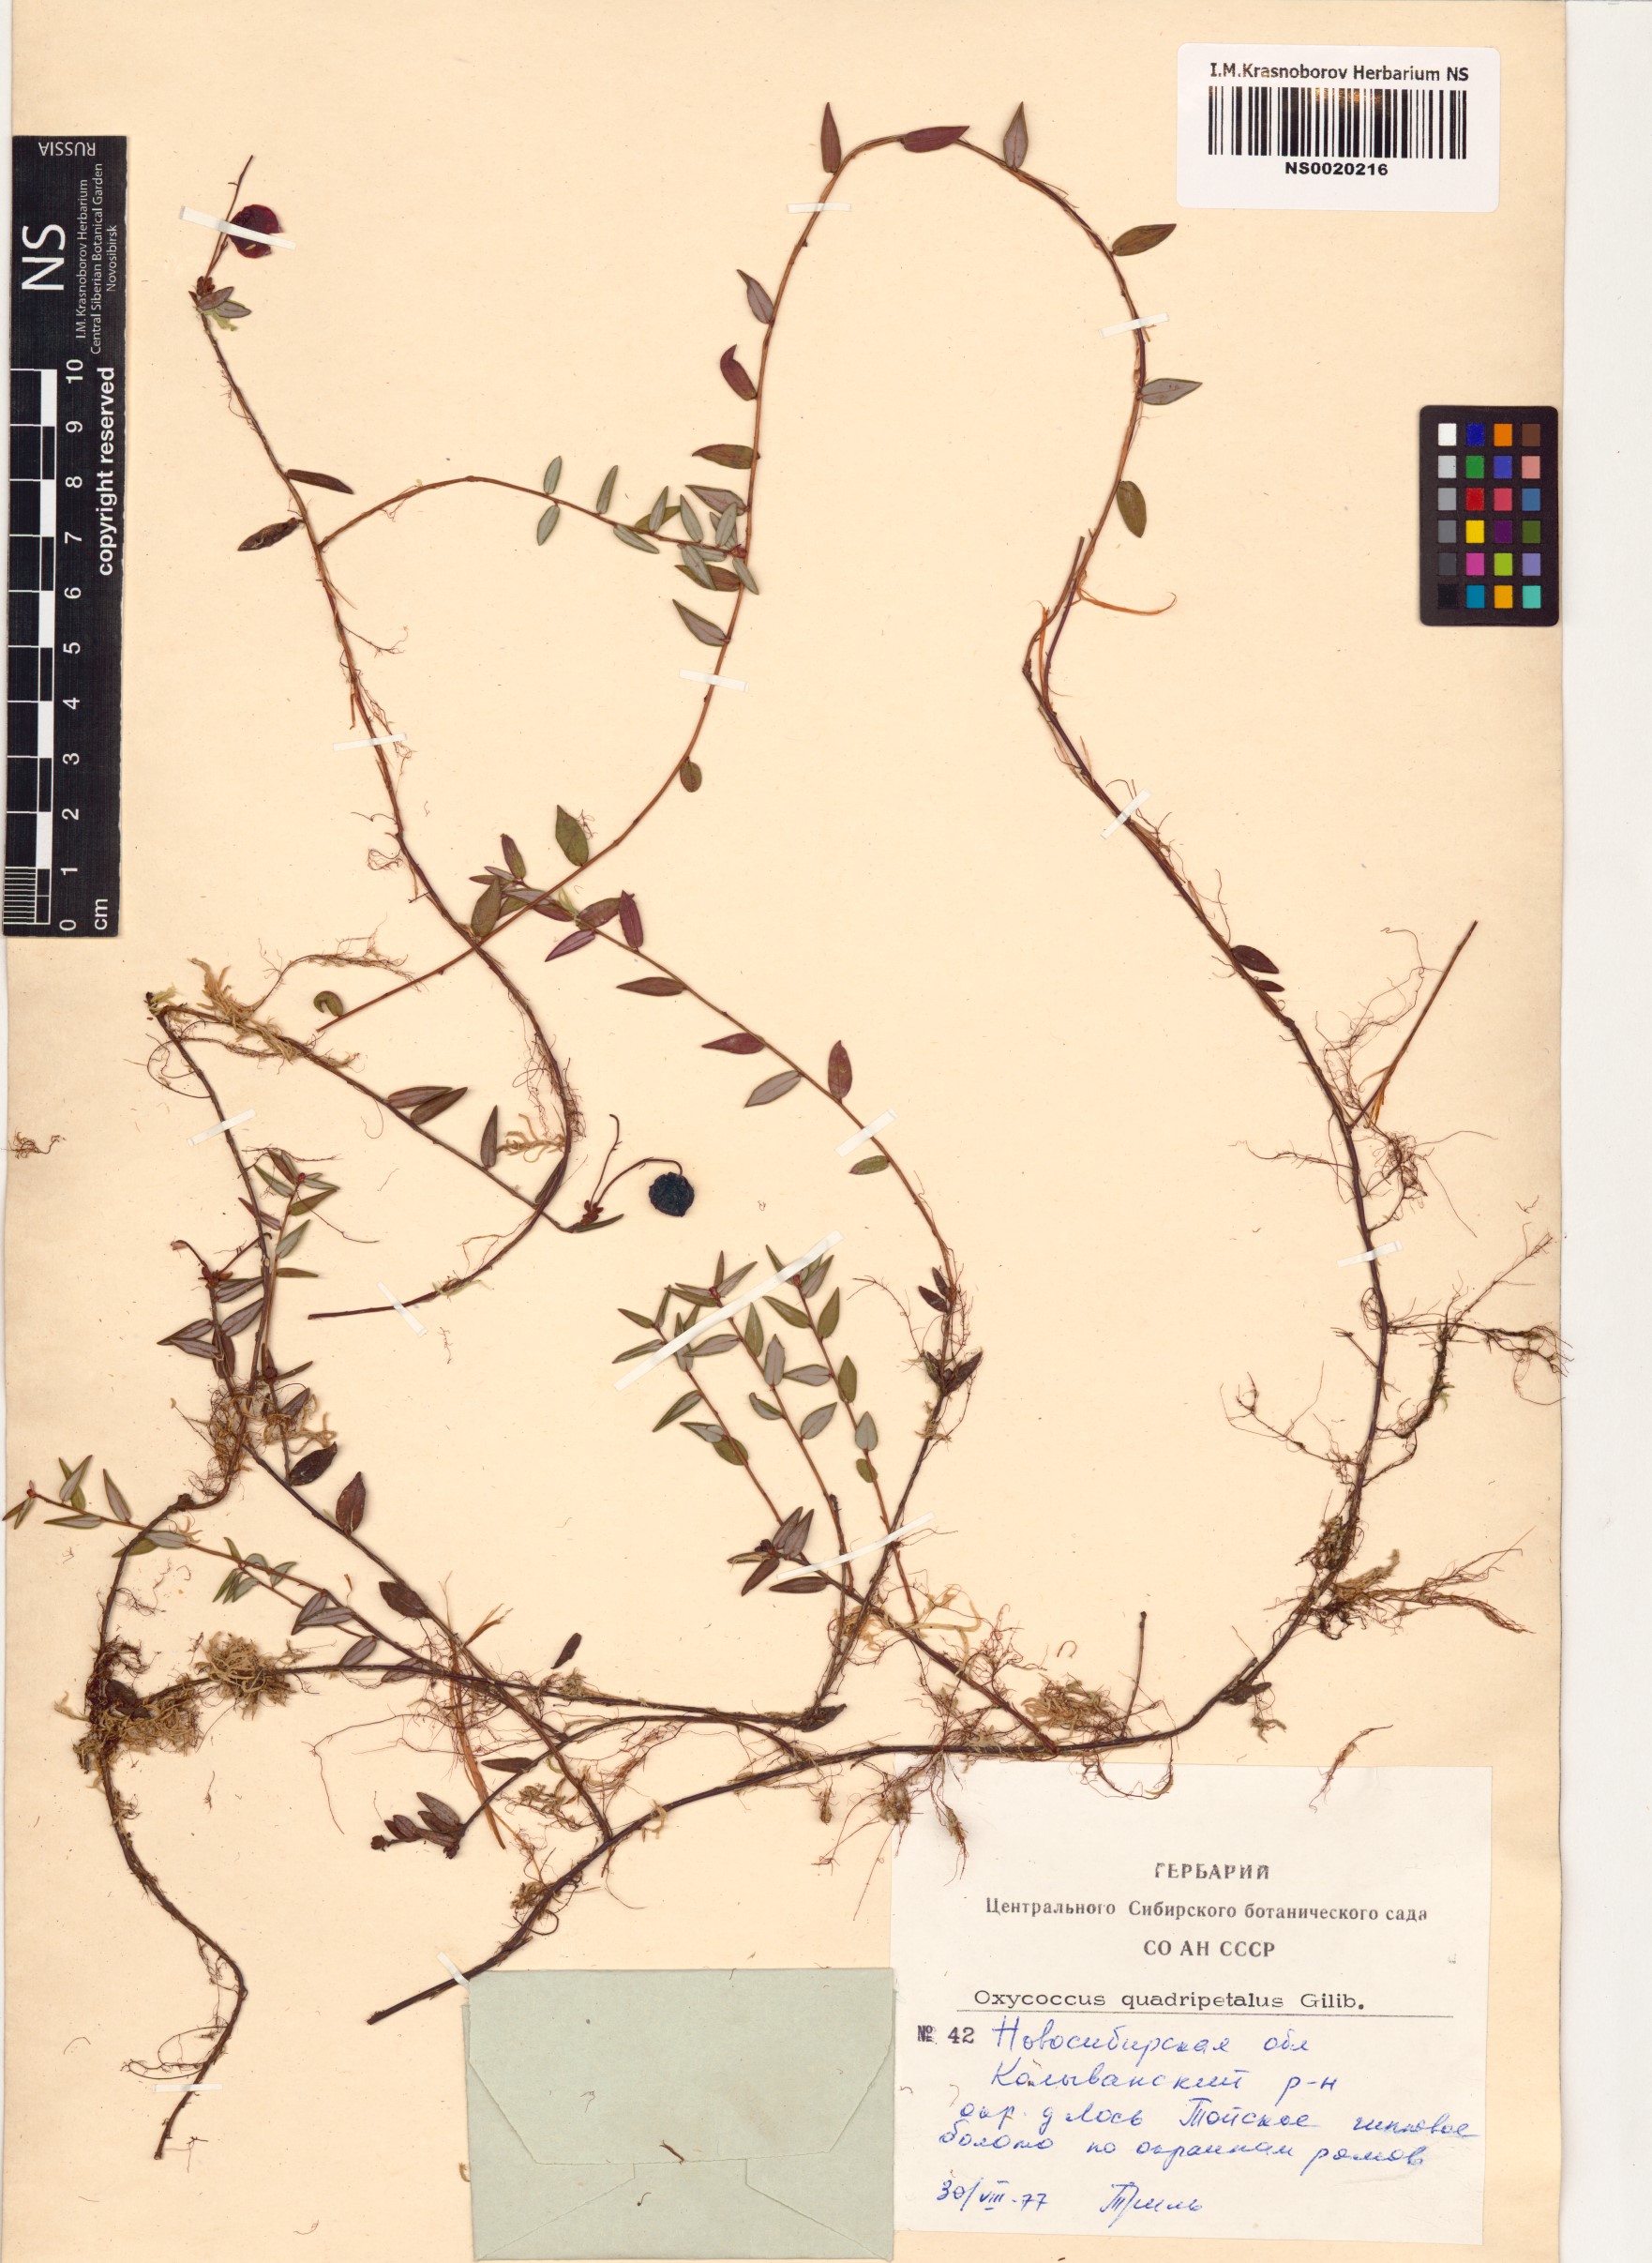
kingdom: Plantae
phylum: Tracheophyta
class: Magnoliopsida
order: Ericales
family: Ericaceae
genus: Vaccinium
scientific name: Vaccinium oxycoccos
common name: Cranberry
